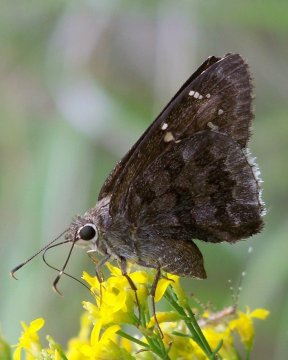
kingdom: Animalia
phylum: Arthropoda
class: Insecta
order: Lepidoptera
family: Hesperiidae
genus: Cogia
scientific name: Cogia hippalus
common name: Acacia Skipper
